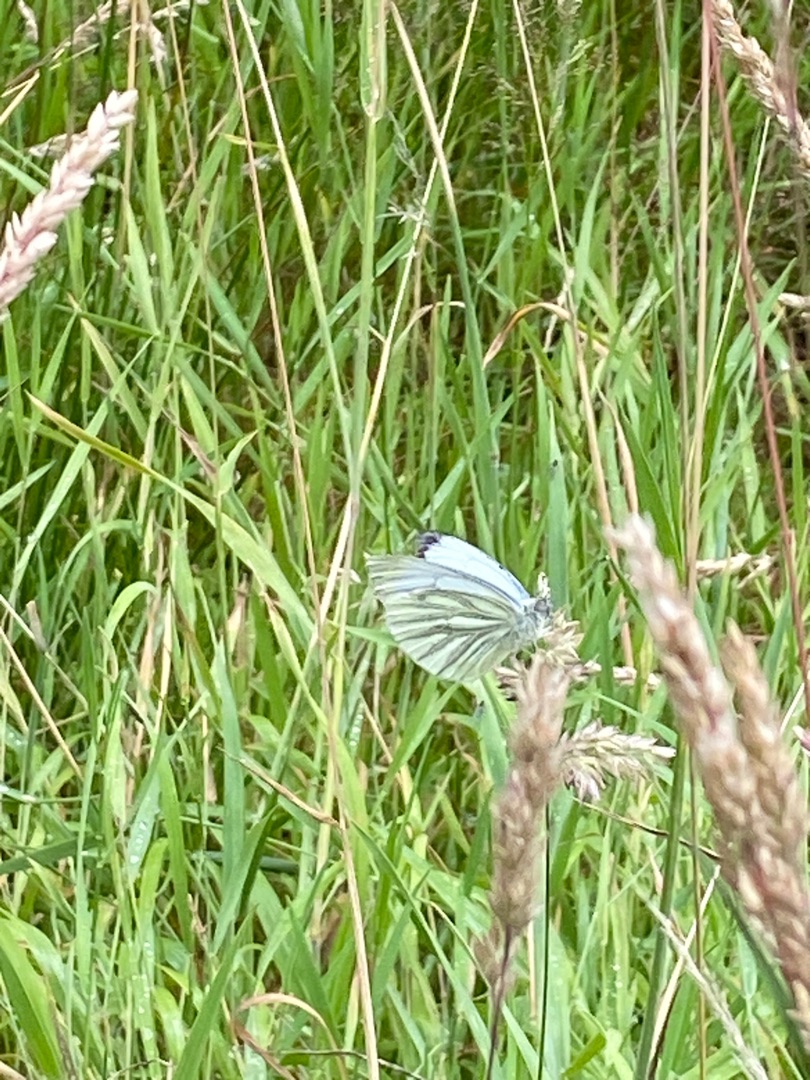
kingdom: Animalia
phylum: Arthropoda
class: Insecta
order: Lepidoptera
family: Pieridae
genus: Pieris
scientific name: Pieris napi
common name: Grønåret kålsommerfugl
